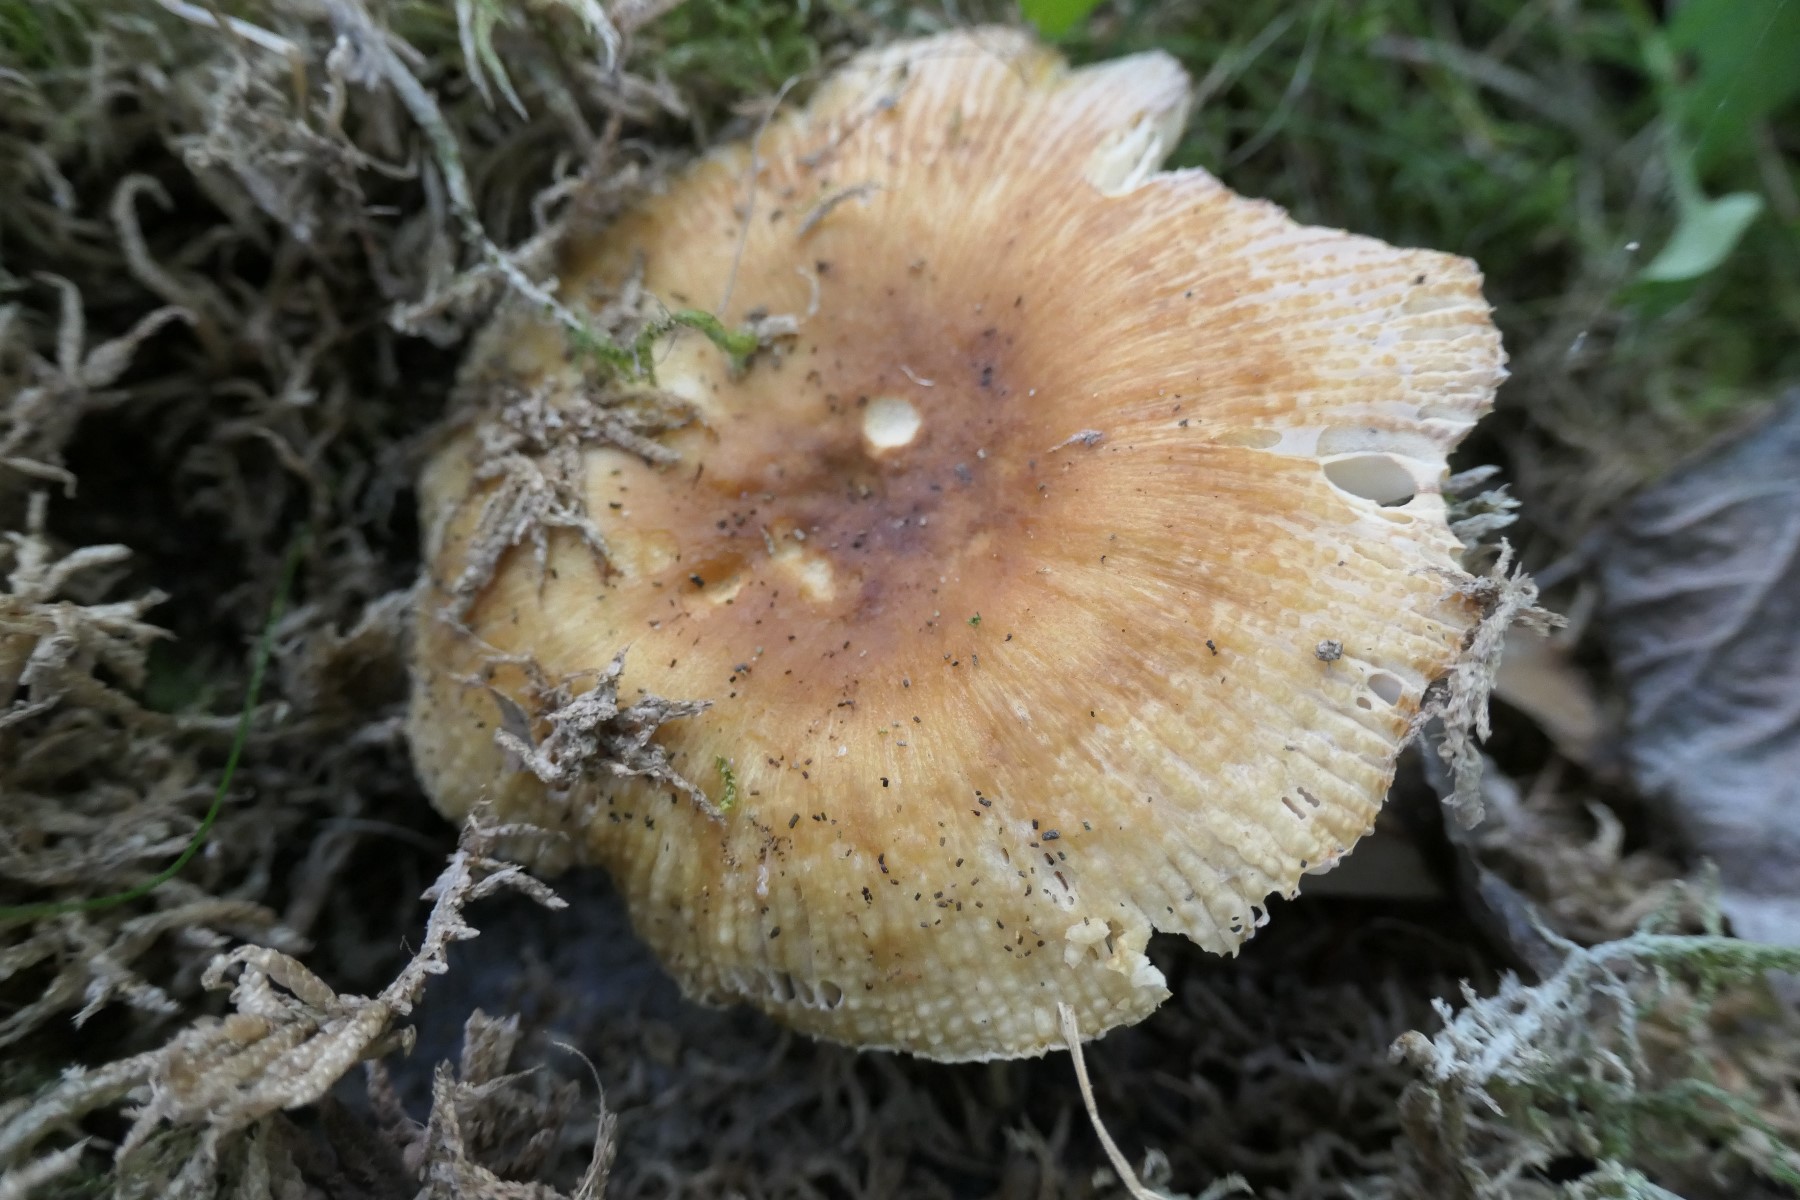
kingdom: Fungi
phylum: Basidiomycota
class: Agaricomycetes
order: Russulales
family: Russulaceae
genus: Russula
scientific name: Russula foetens
